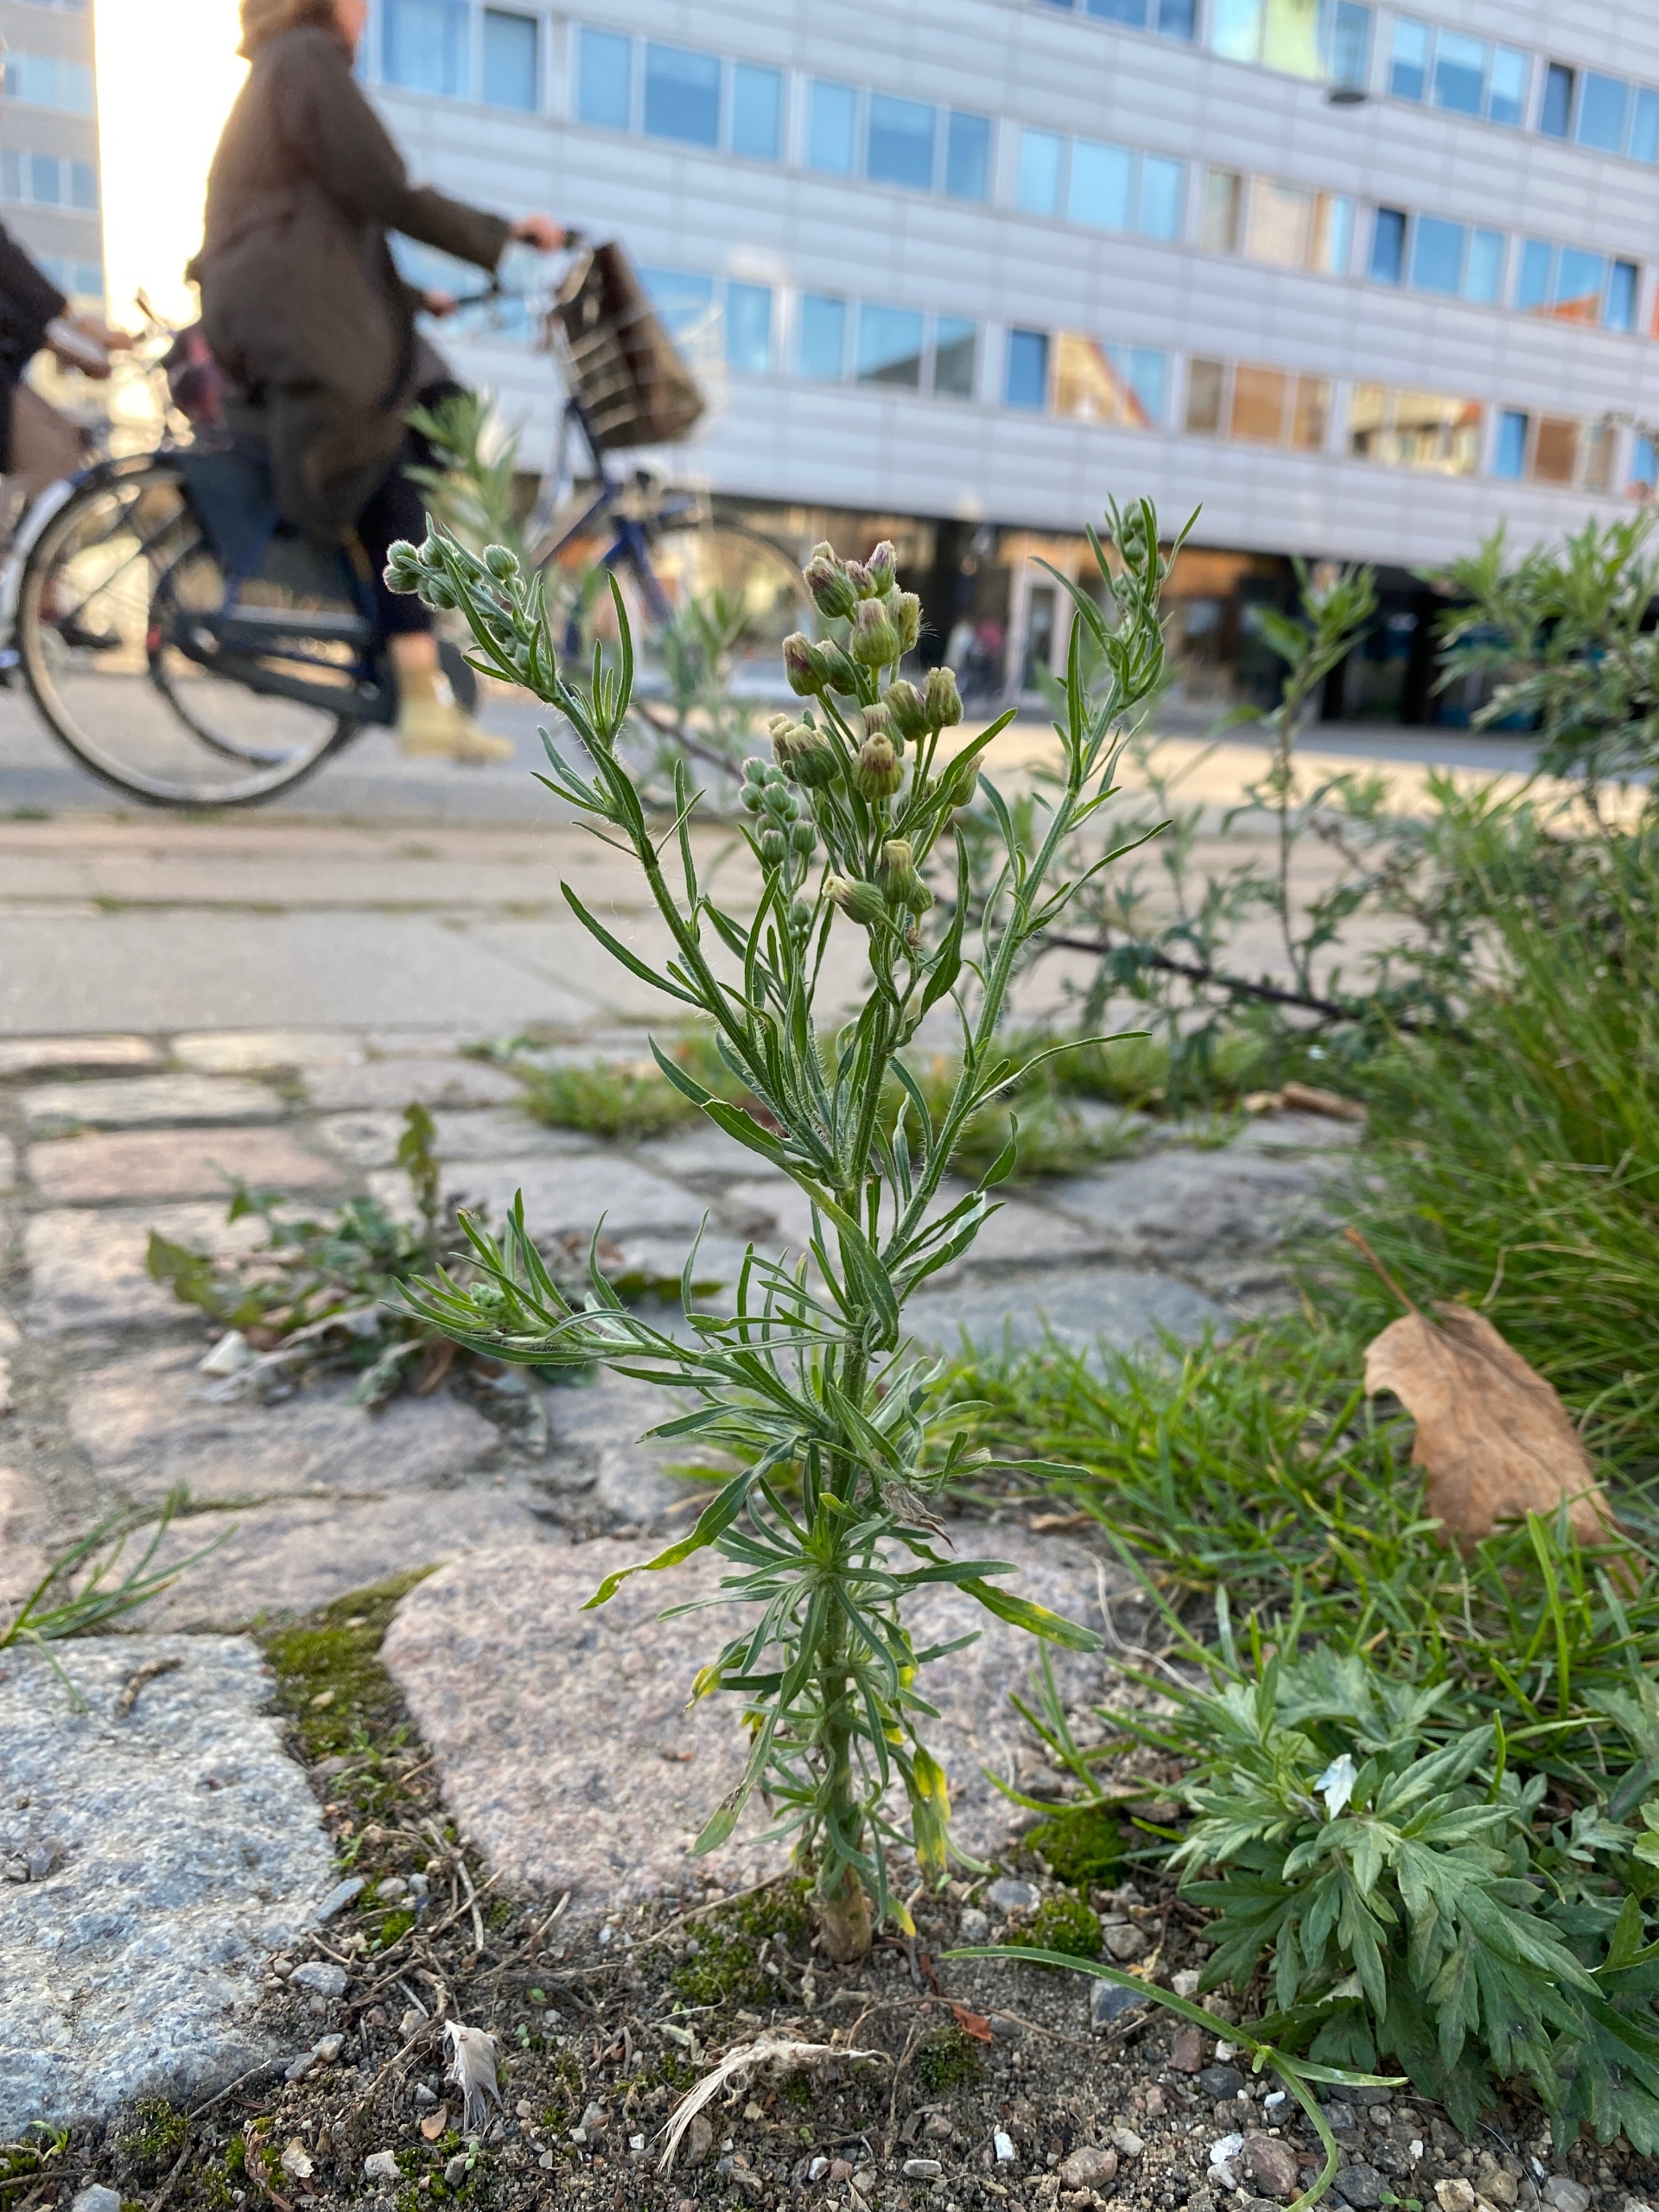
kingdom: Plantae
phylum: Tracheophyta
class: Magnoliopsida
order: Asterales
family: Asteraceae
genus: Erigeron
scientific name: Erigeron bonariensis
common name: Håret bakkestjerne
